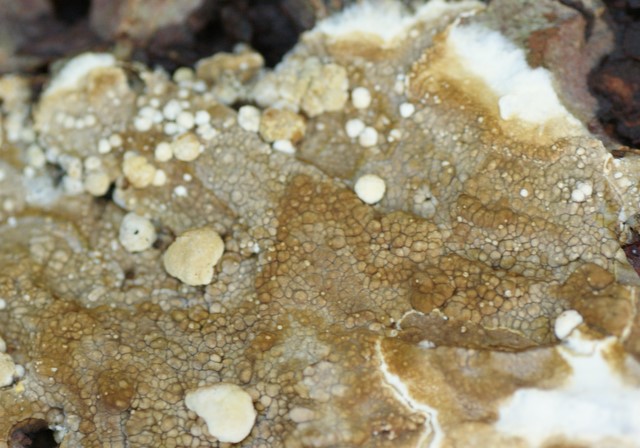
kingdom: Fungi
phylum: Ascomycota
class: Sordariomycetes
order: Xylariales
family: Hypoxylaceae
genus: Nodulisporium
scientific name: Nodulisporium cecidiogenes
